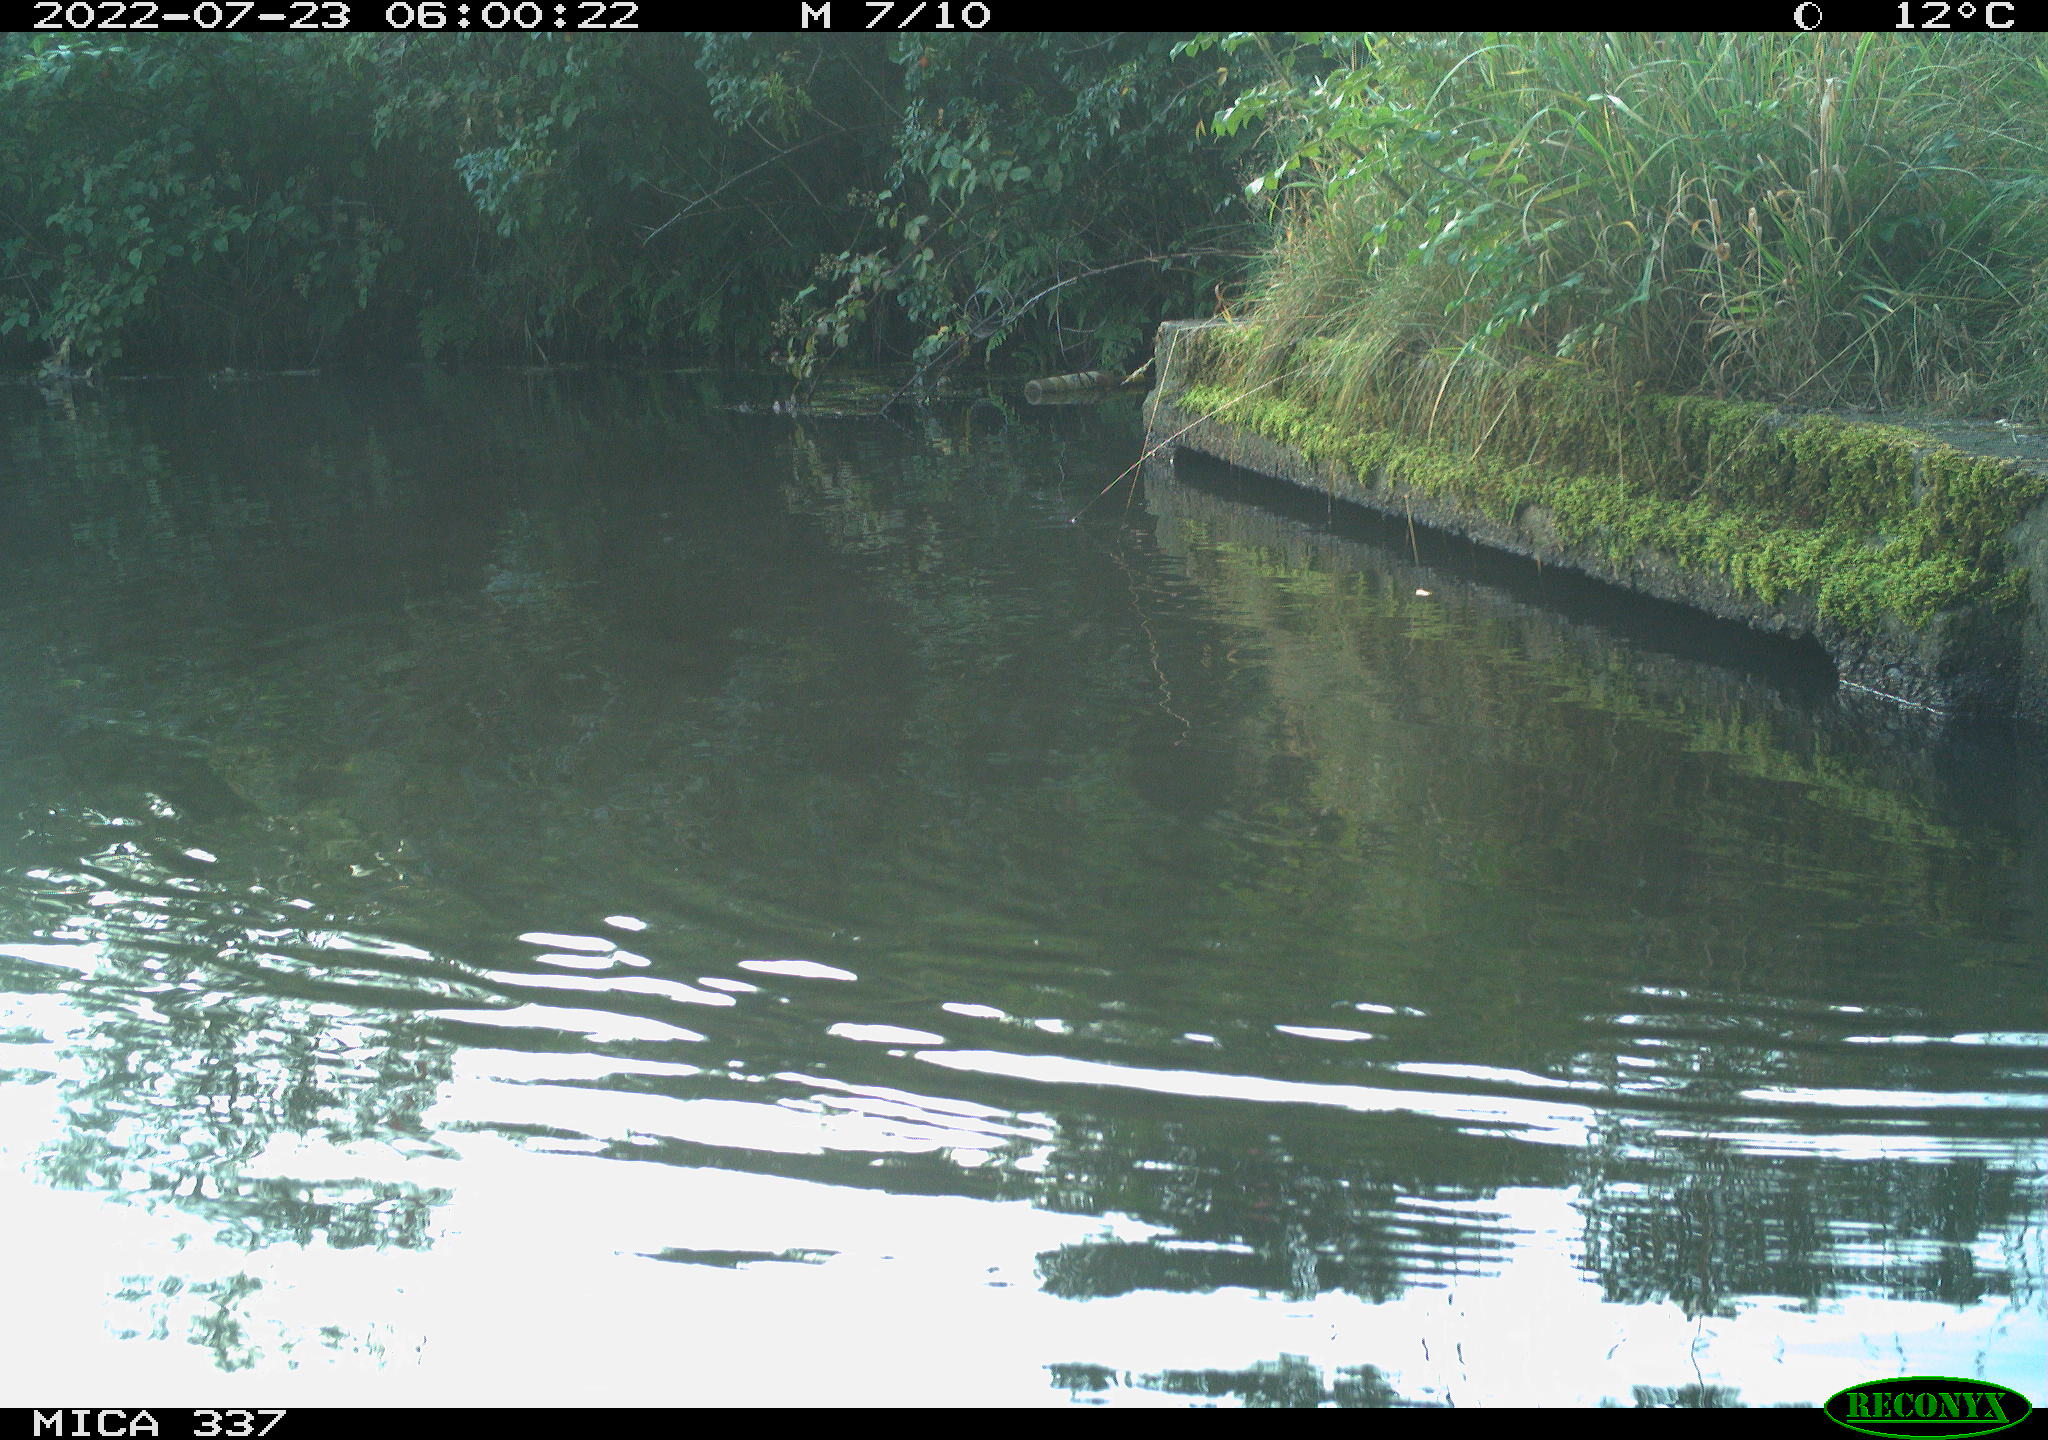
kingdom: Animalia
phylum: Chordata
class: Aves
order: Gruiformes
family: Rallidae
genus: Gallinula
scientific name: Gallinula chloropus
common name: Common moorhen
